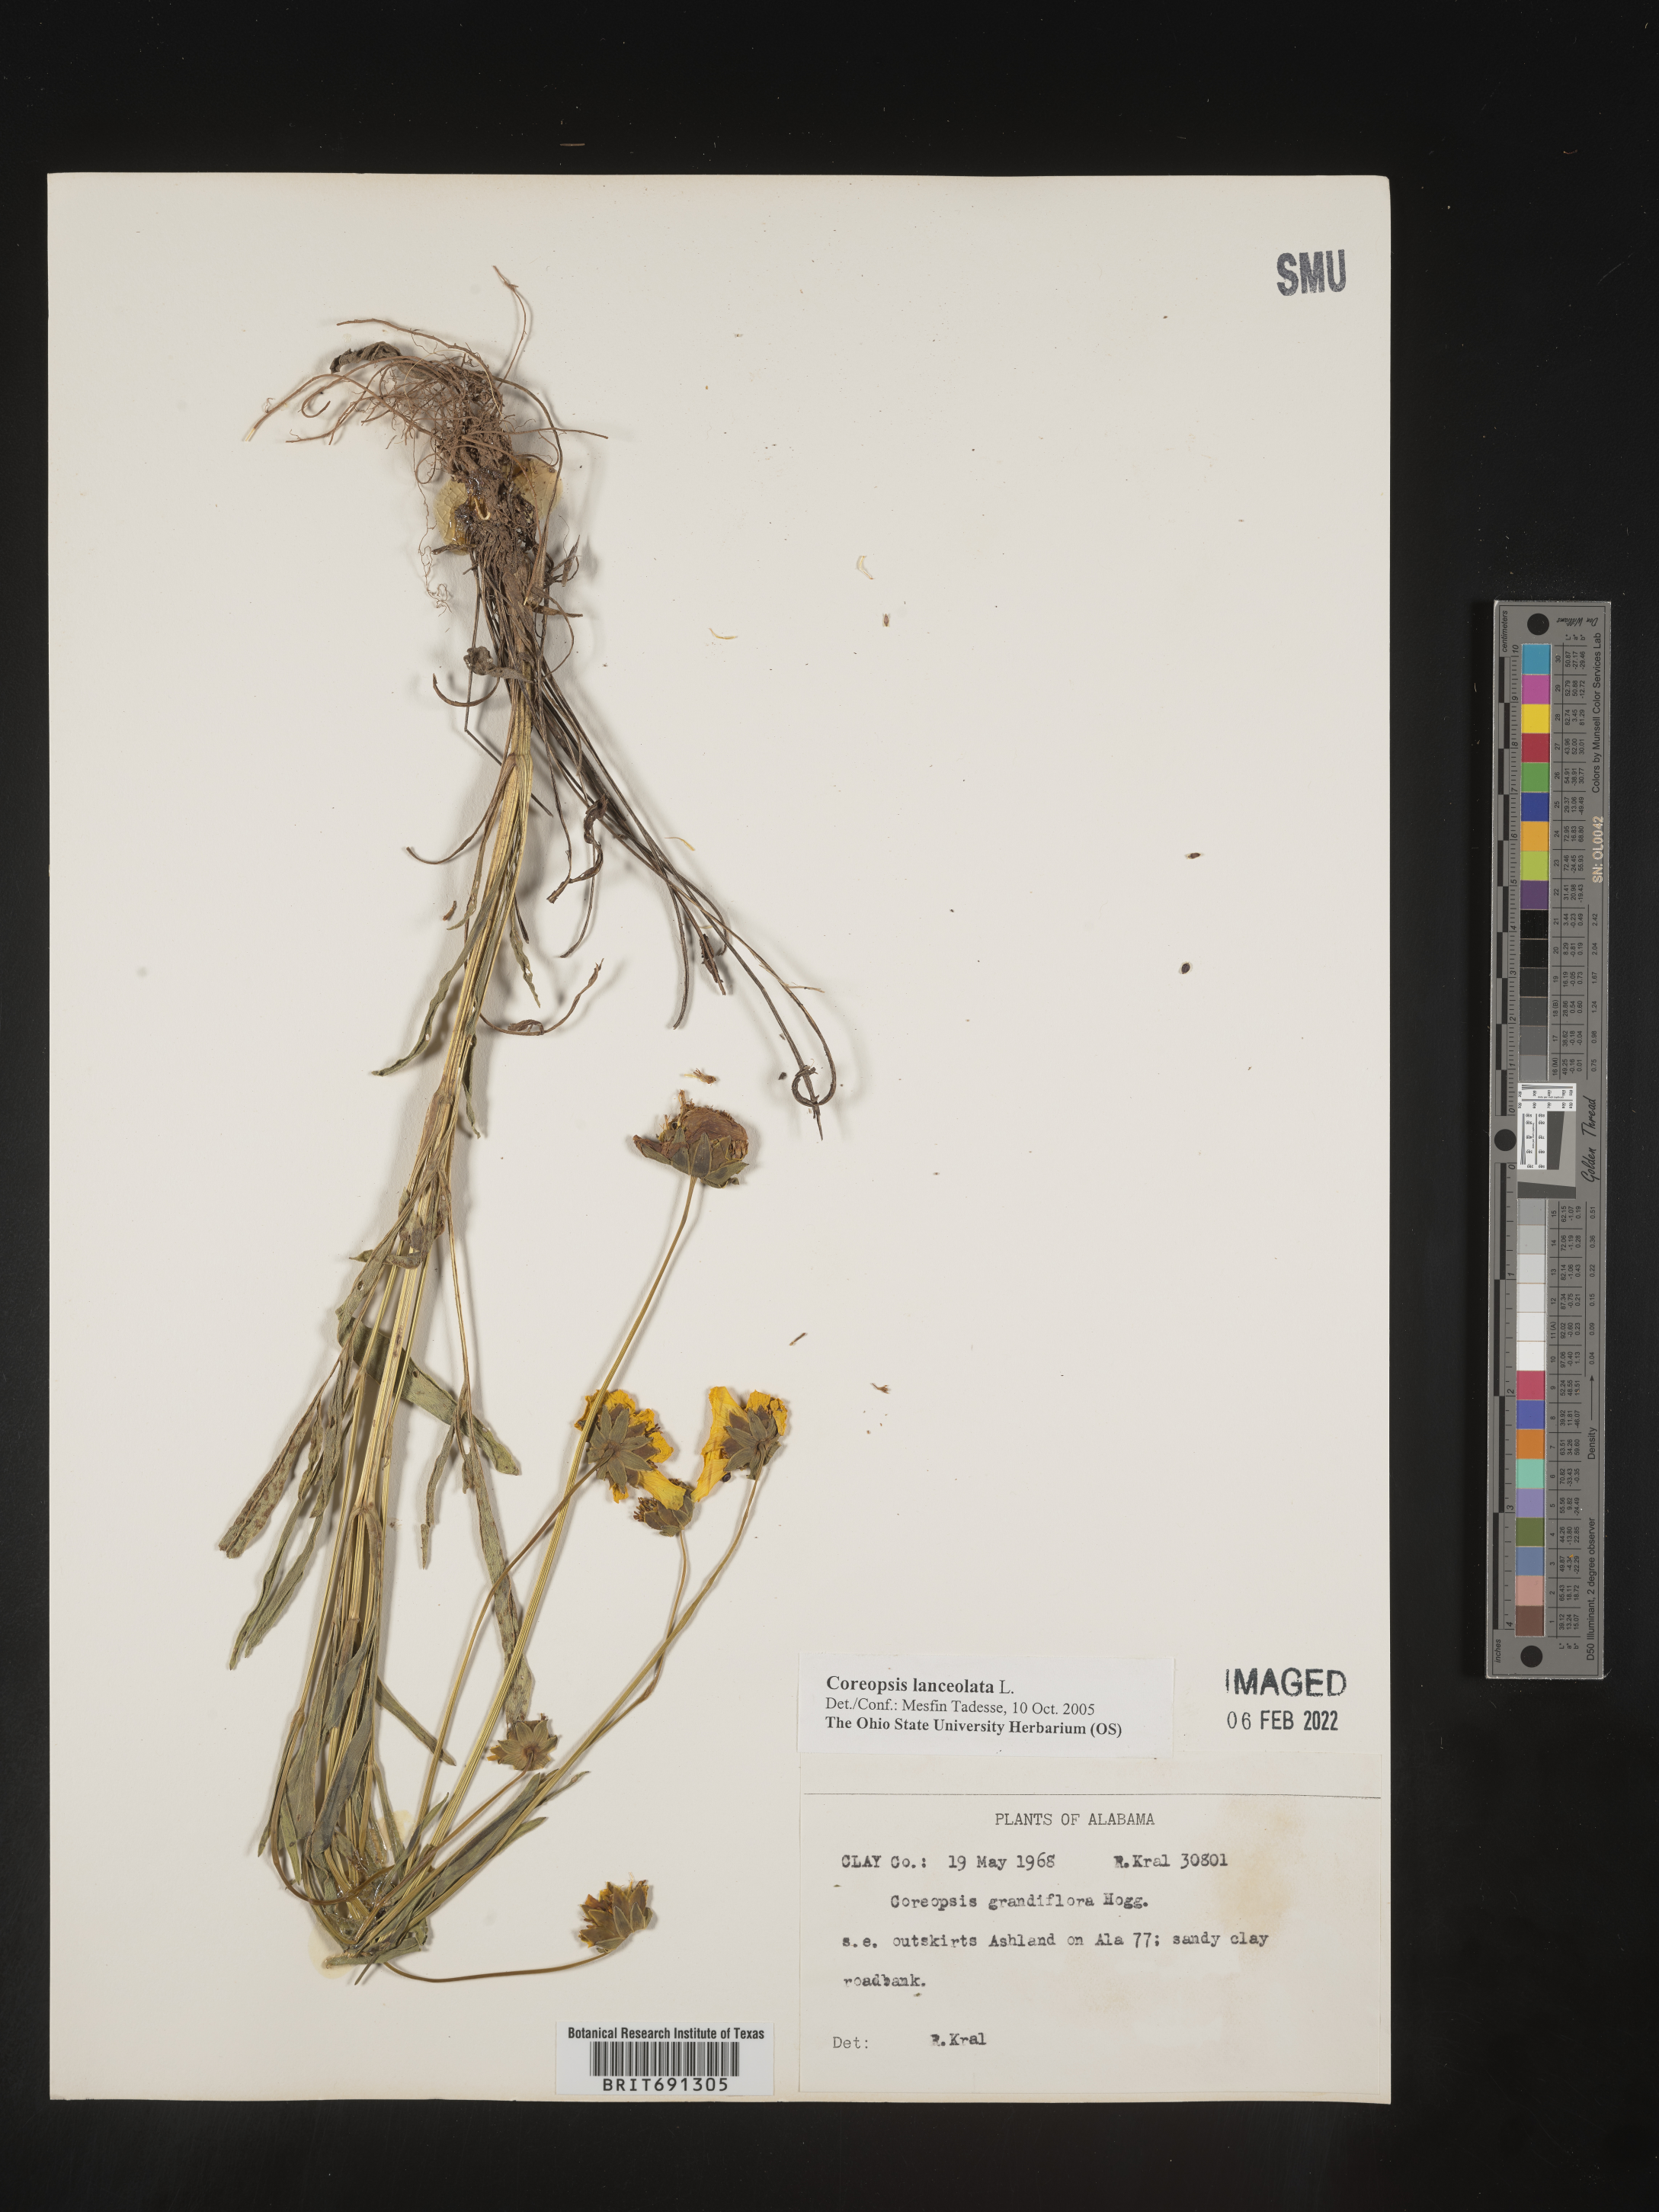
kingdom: Plantae
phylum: Tracheophyta
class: Magnoliopsida
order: Asterales
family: Asteraceae
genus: Coreopsis
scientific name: Coreopsis lanceolata
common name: Garden coreopsis
